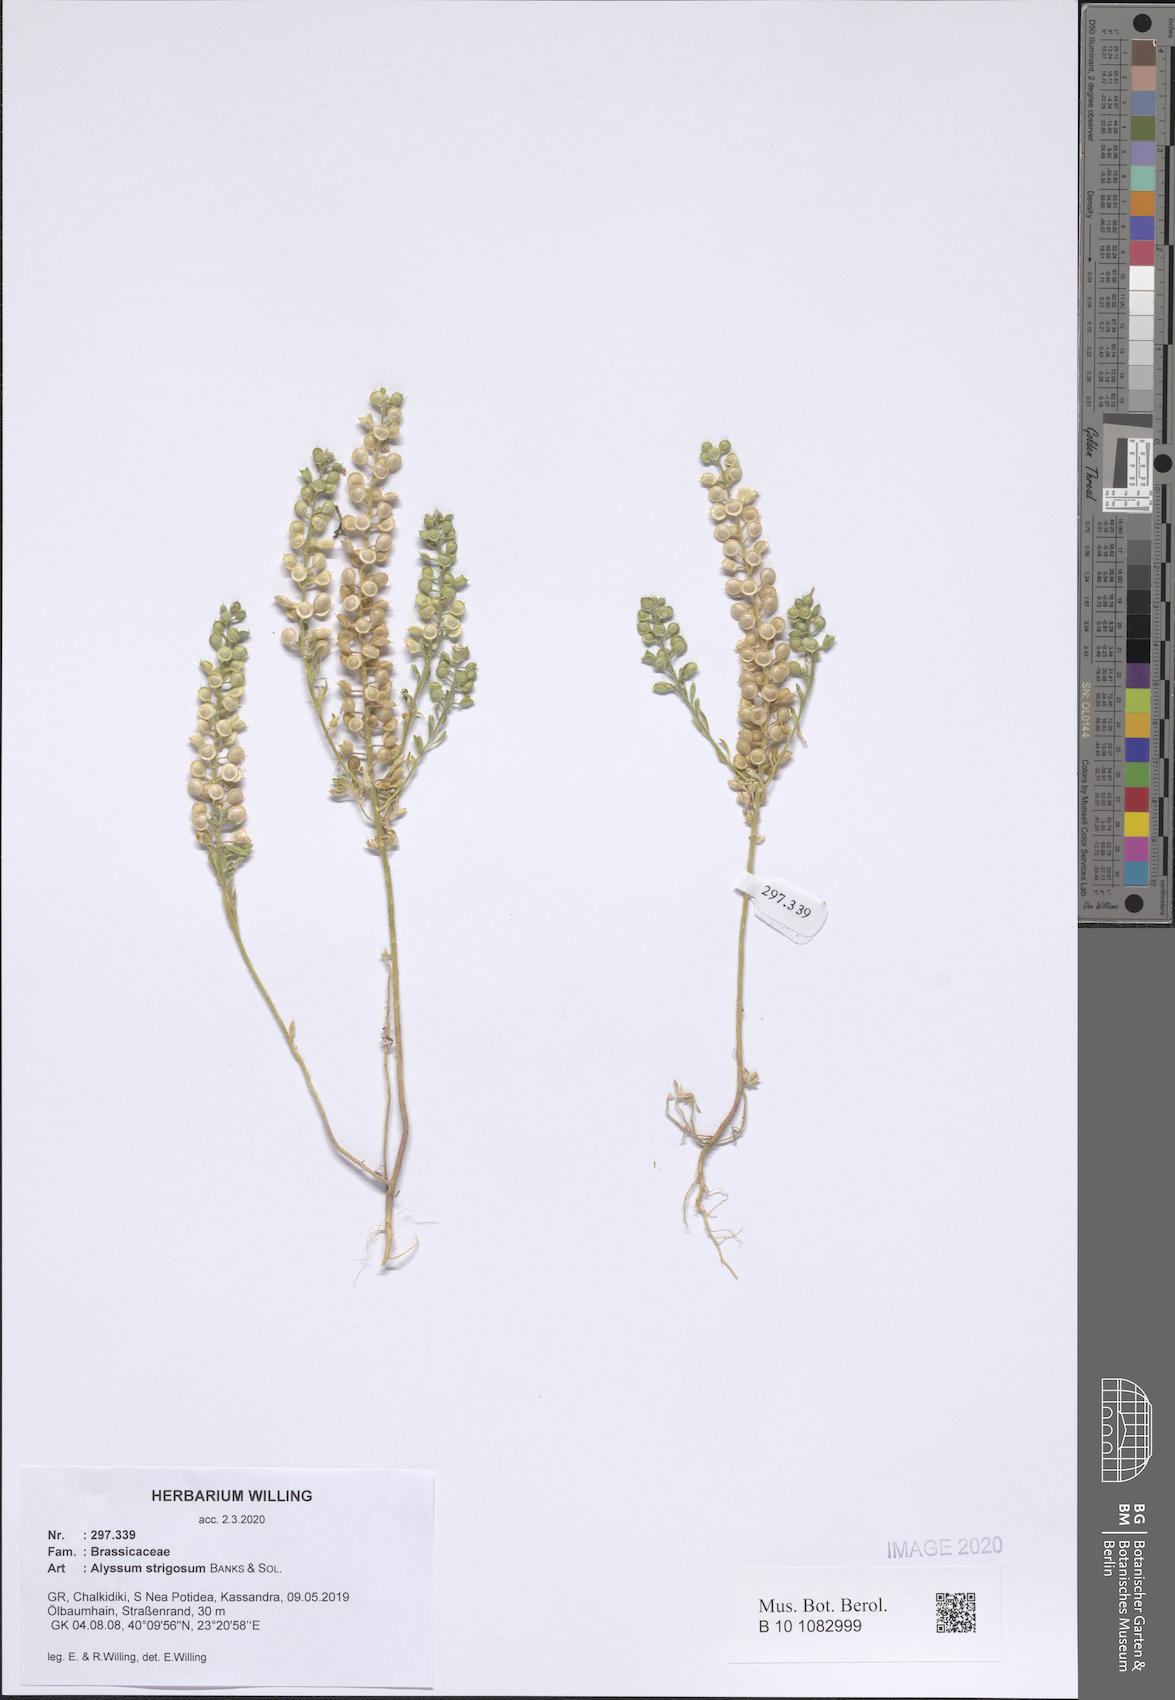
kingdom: Plantae
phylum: Tracheophyta
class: Magnoliopsida
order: Brassicales
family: Brassicaceae
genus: Alyssum
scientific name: Alyssum strigosum
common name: Alyssum
